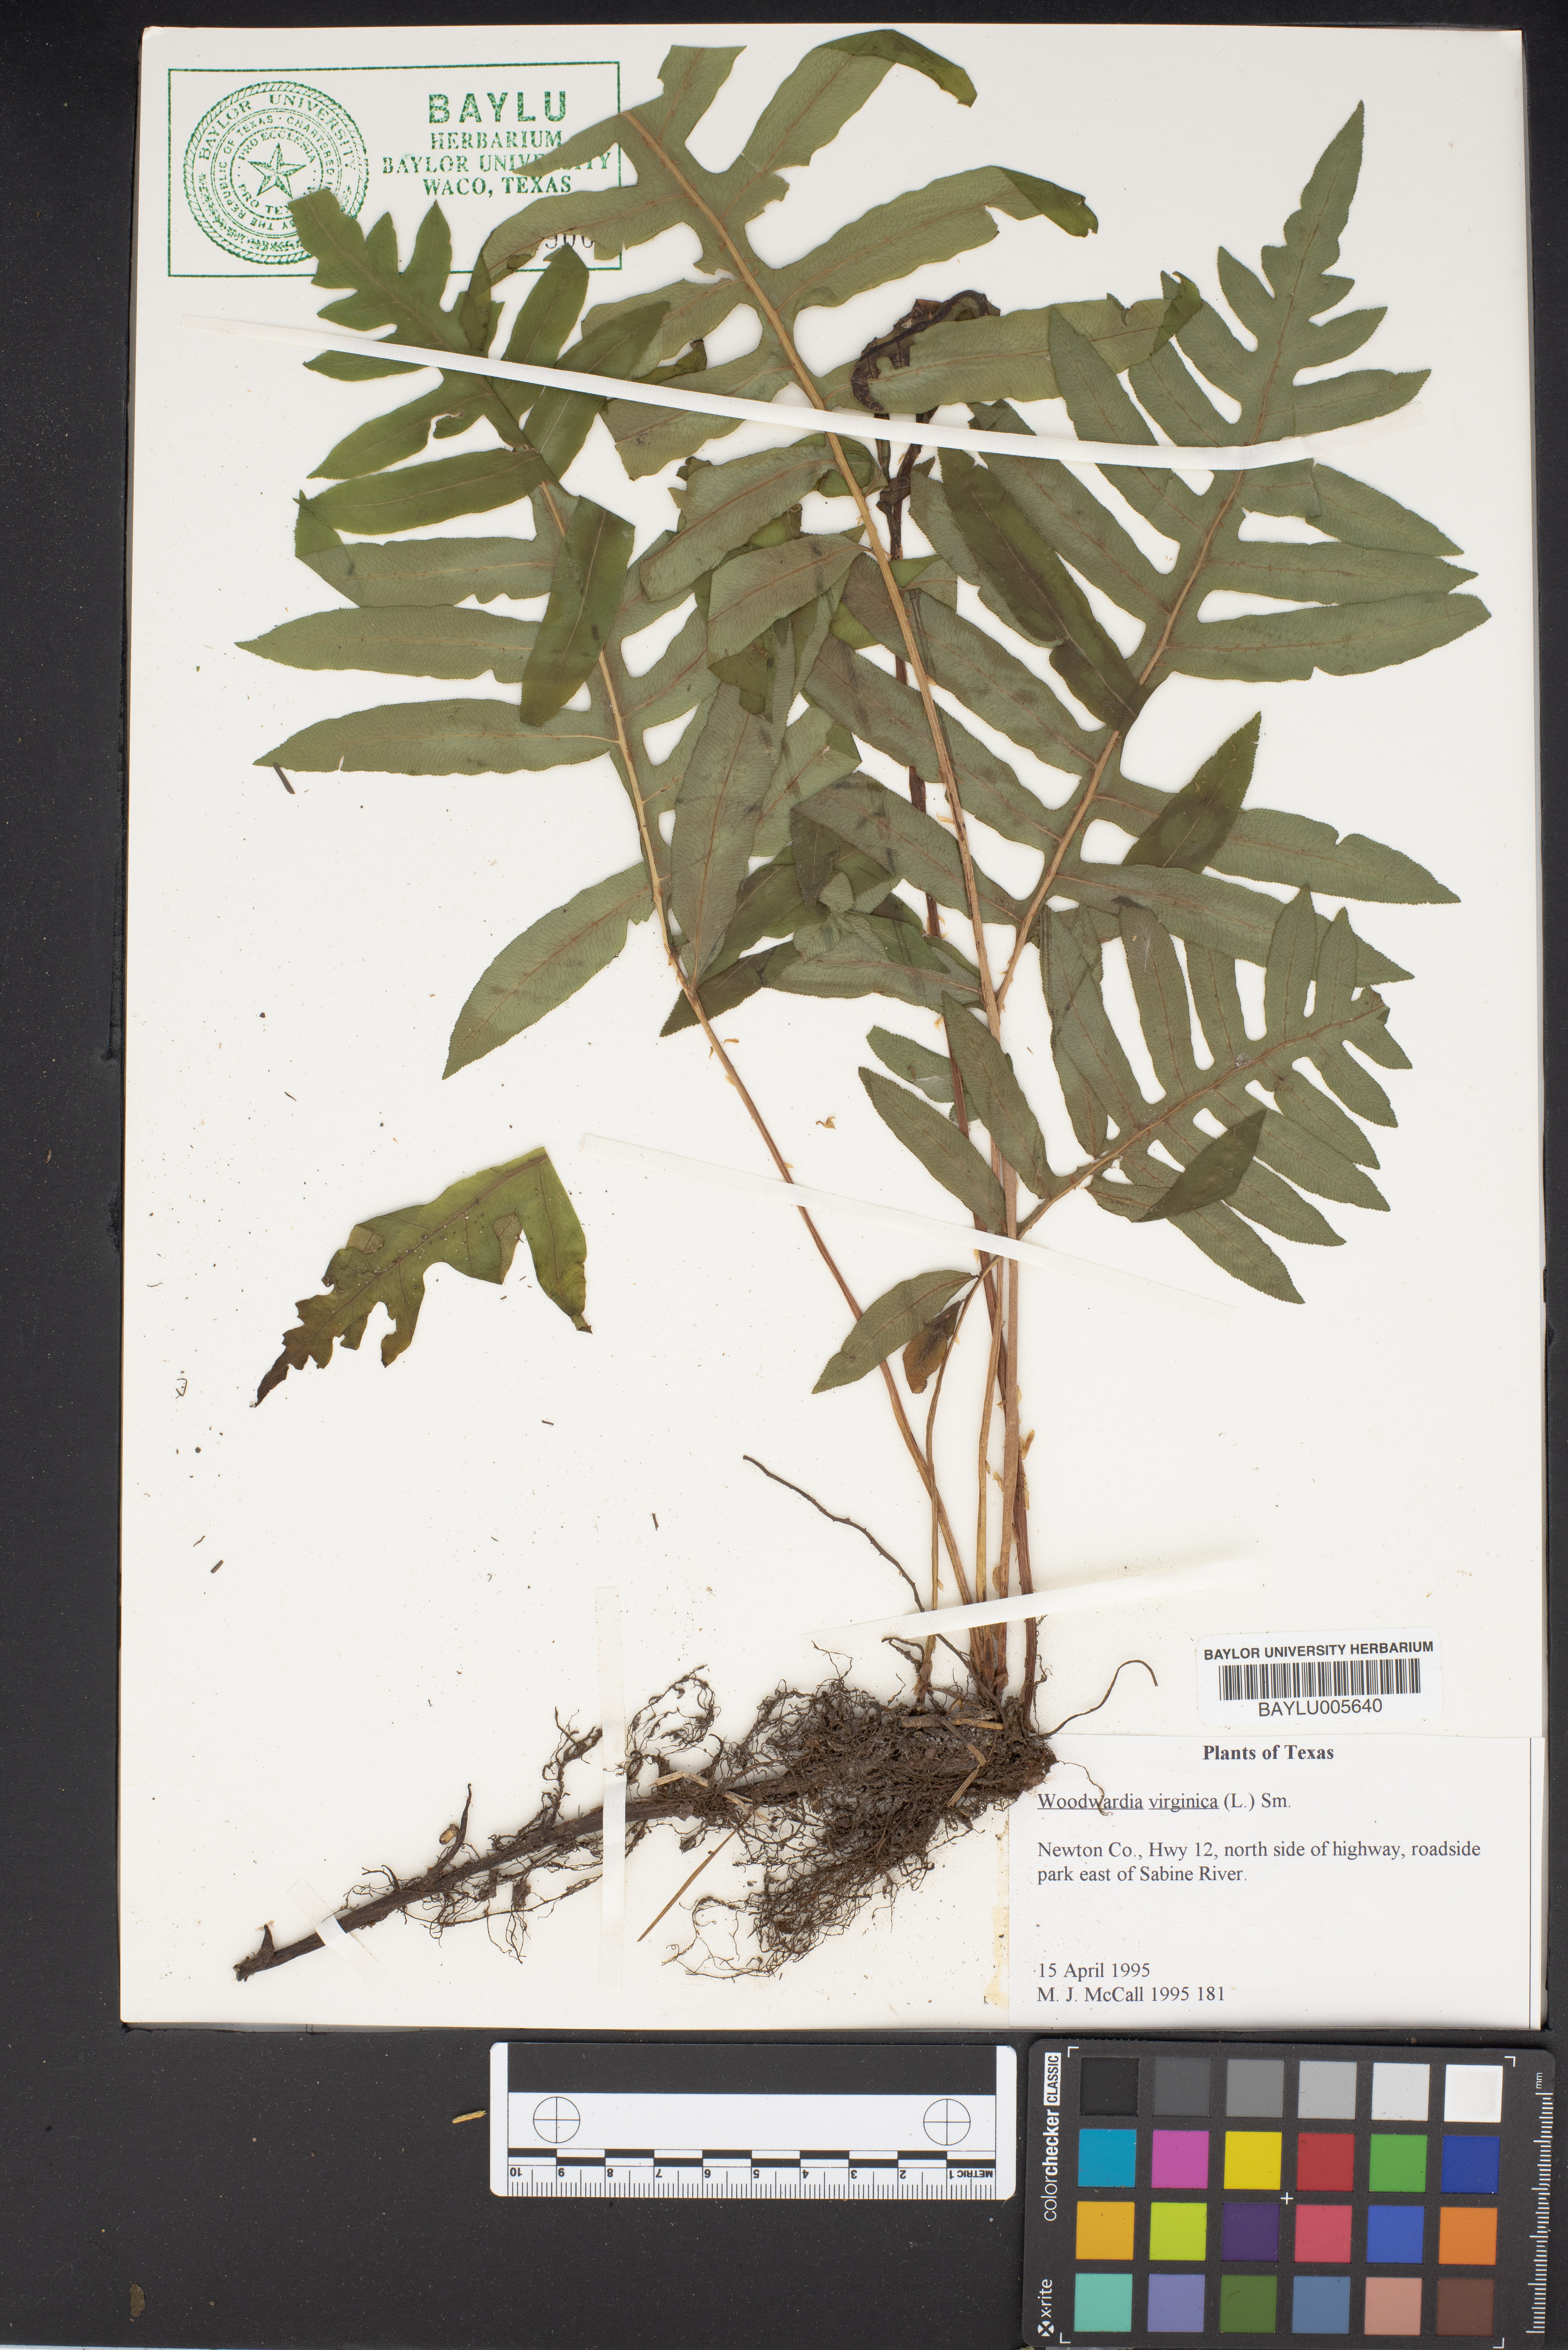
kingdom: Plantae
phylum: Tracheophyta
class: Polypodiopsida
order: Polypodiales
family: Blechnaceae
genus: Anchistea
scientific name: Anchistea virginica
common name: Virginia chain fern
